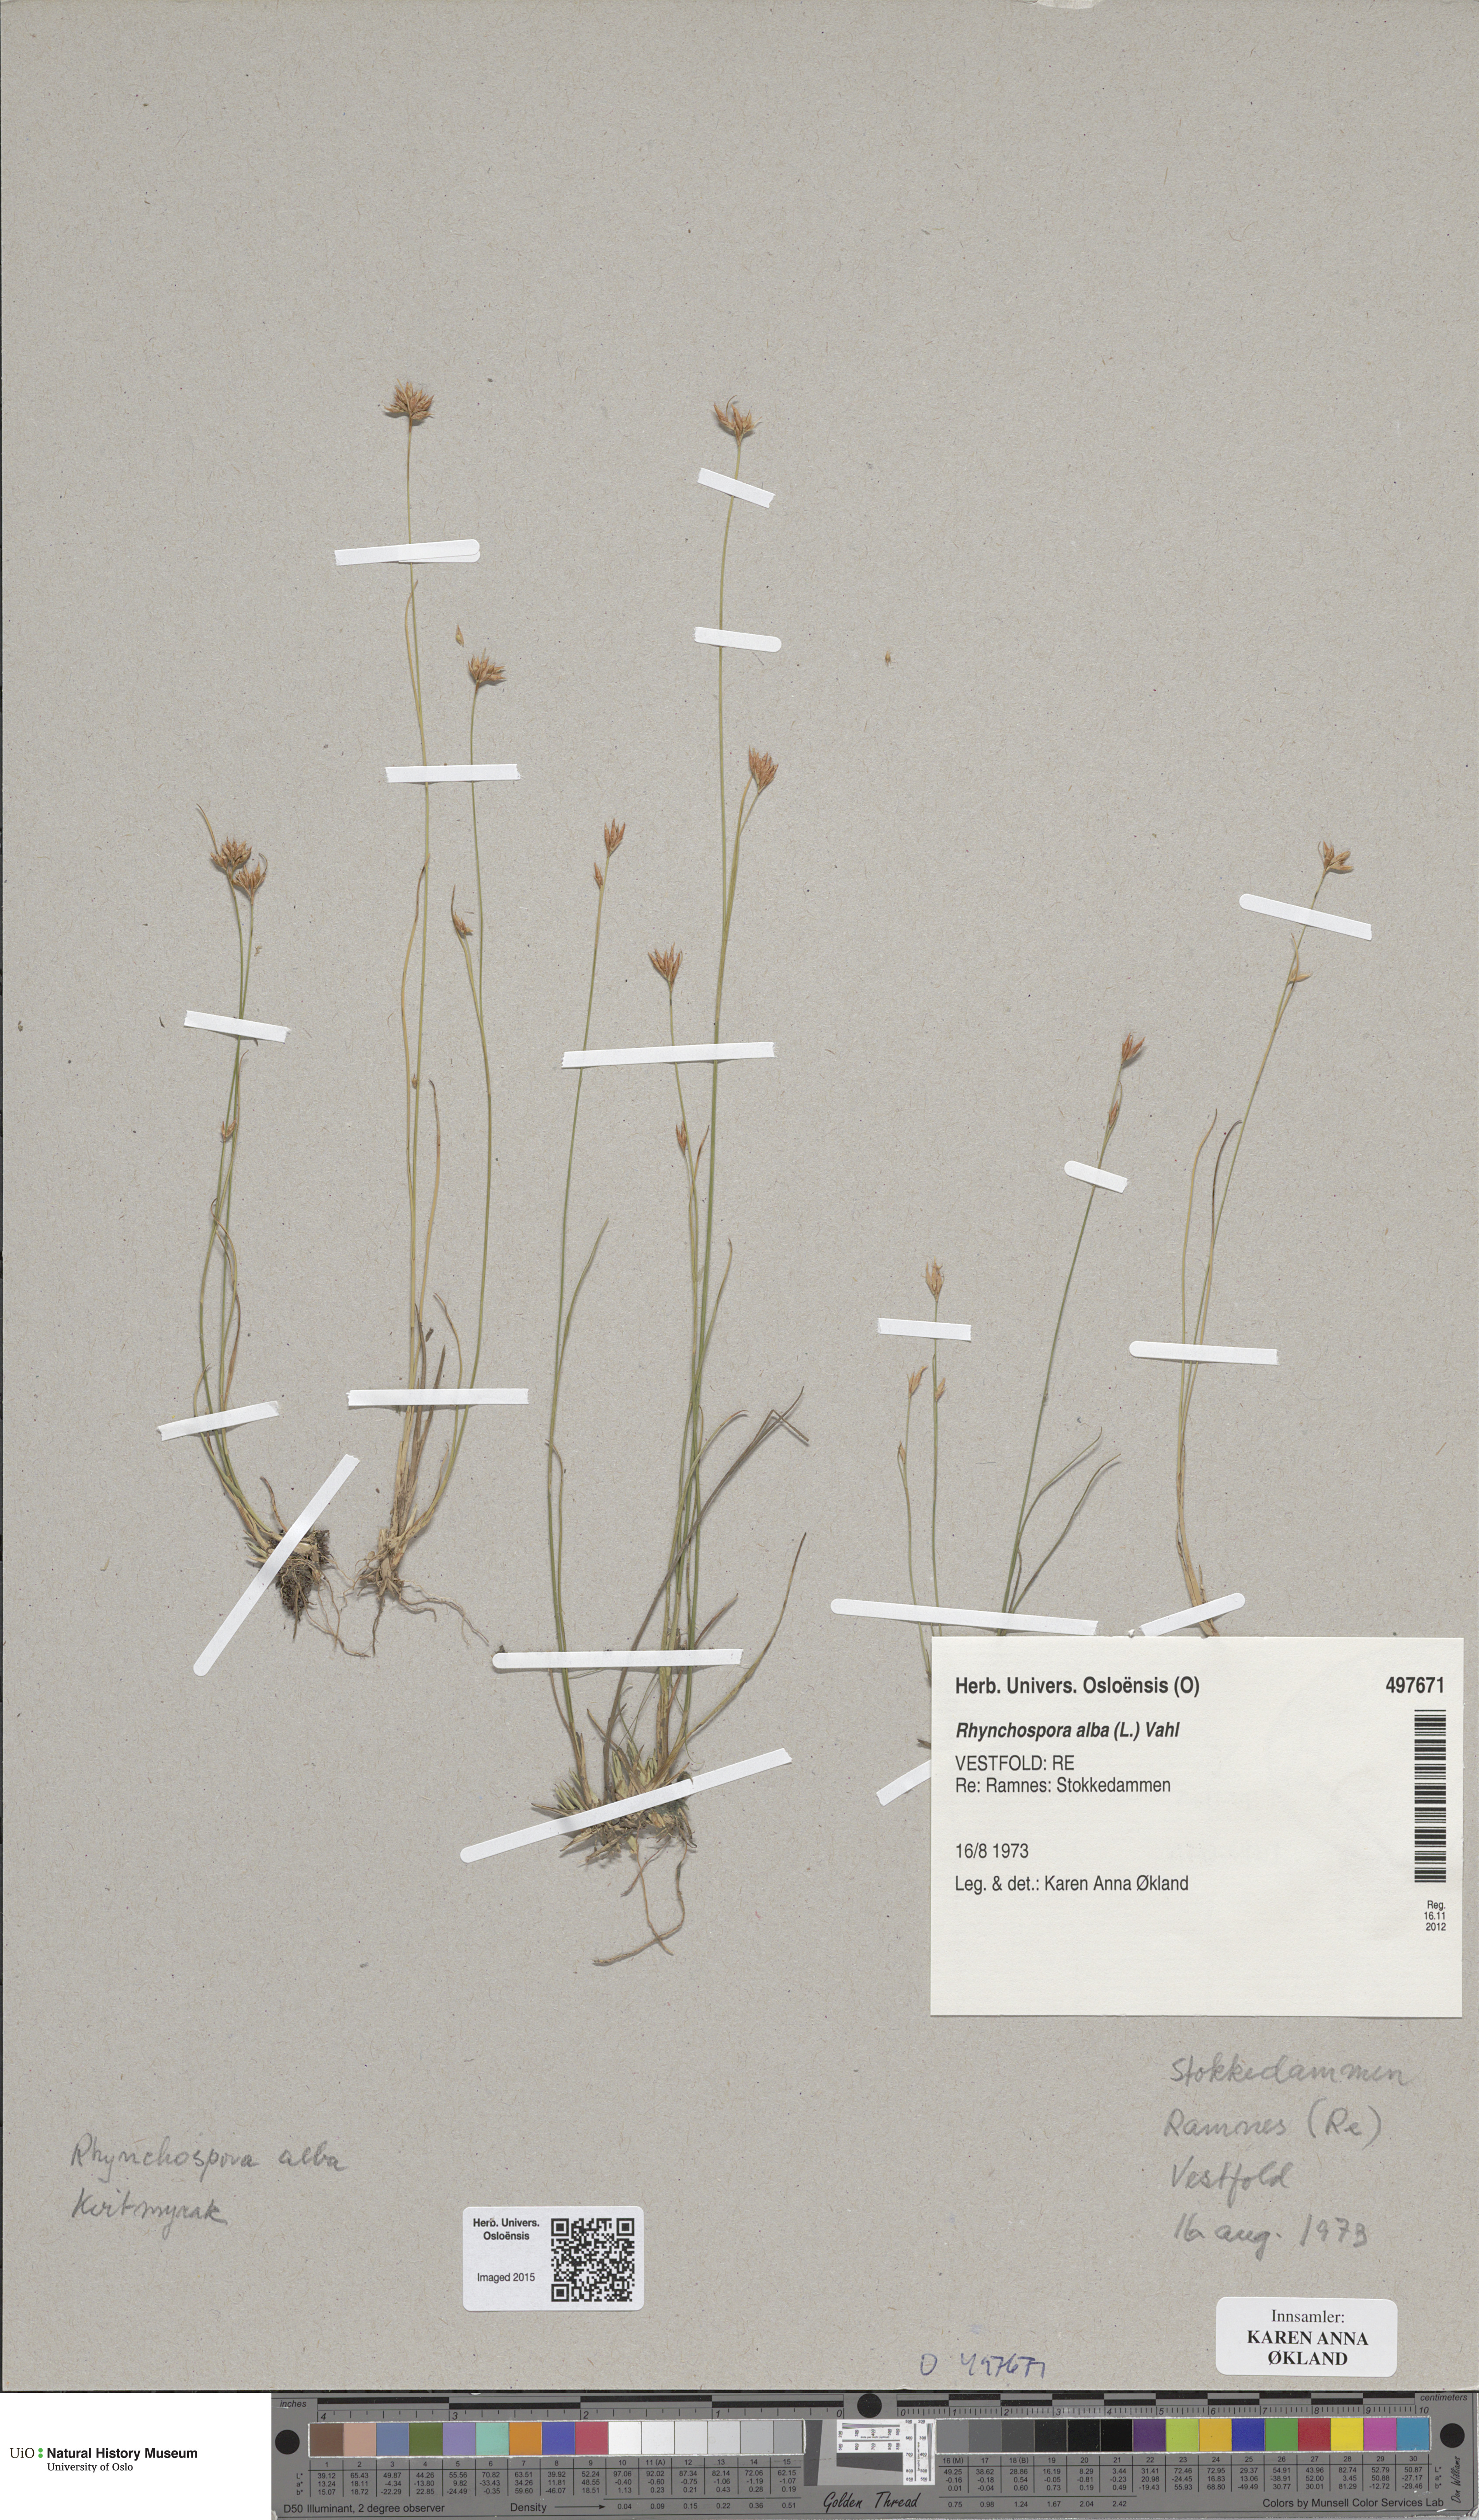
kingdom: Plantae
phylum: Tracheophyta
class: Liliopsida
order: Poales
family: Cyperaceae
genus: Rhynchospora
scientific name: Rhynchospora alba
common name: White beak-sedge
